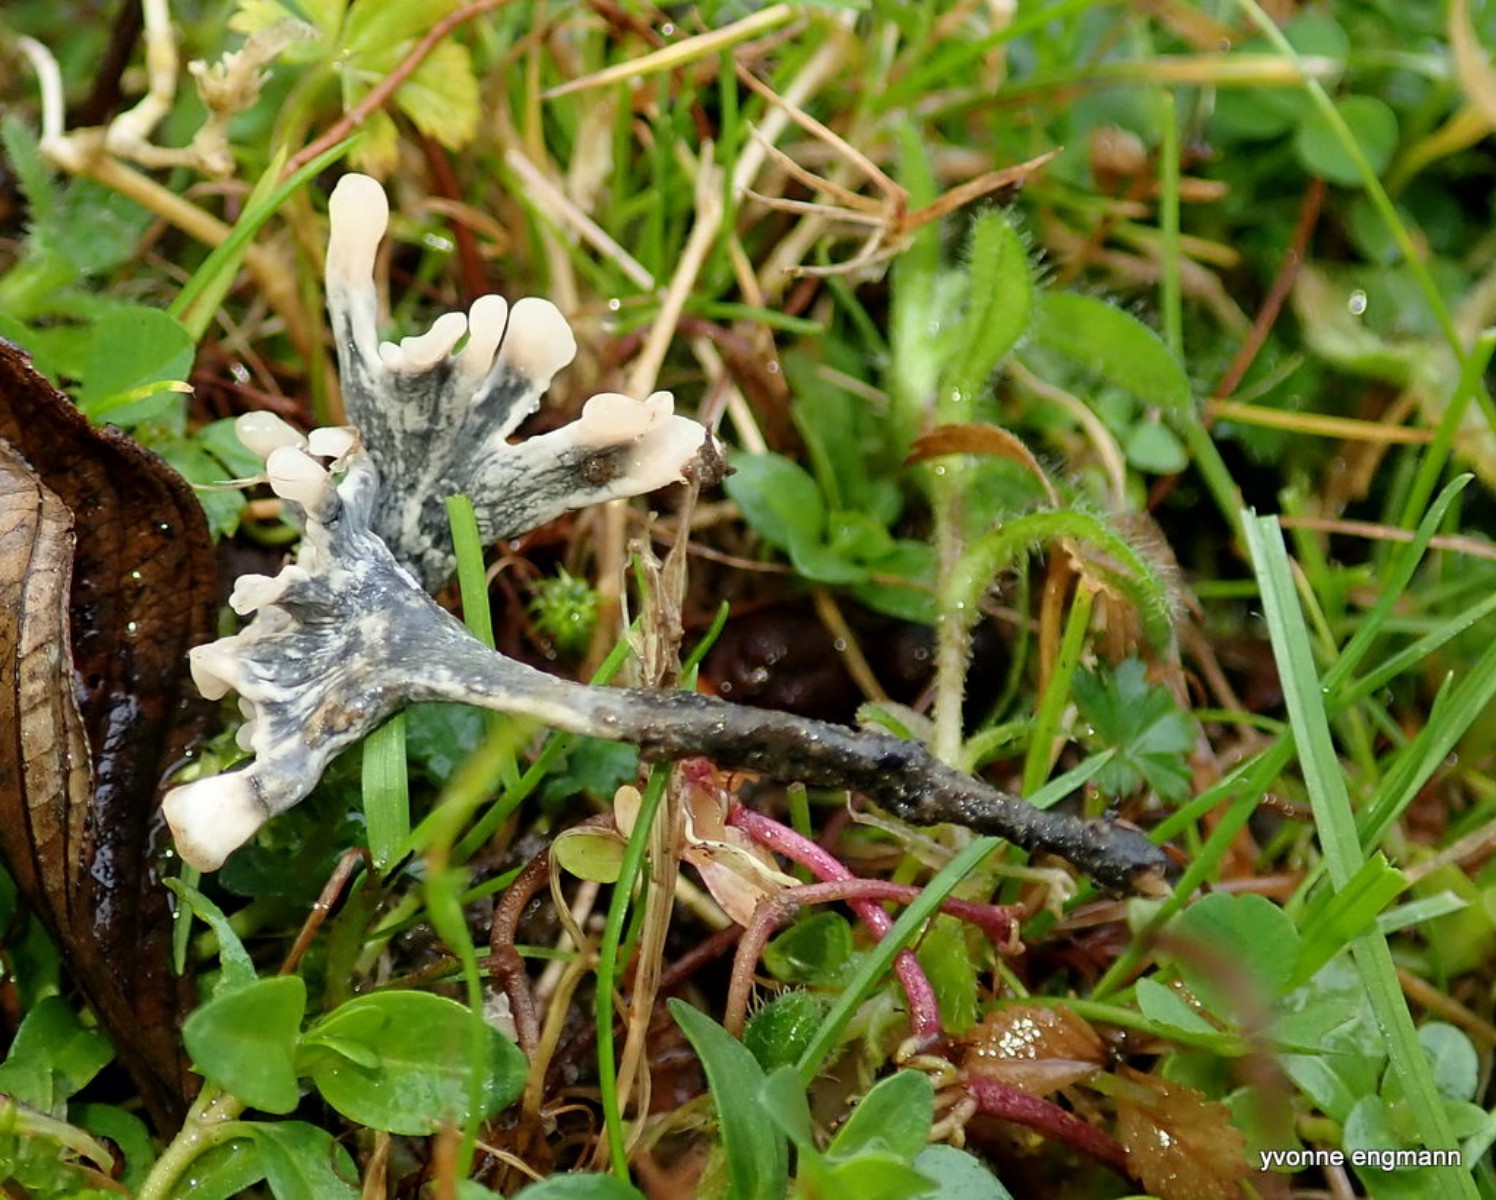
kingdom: Fungi
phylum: Ascomycota
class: Sordariomycetes
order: Xylariales
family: Xylariaceae
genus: Xylaria
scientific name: Xylaria hypoxylon
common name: grenet stødsvamp
